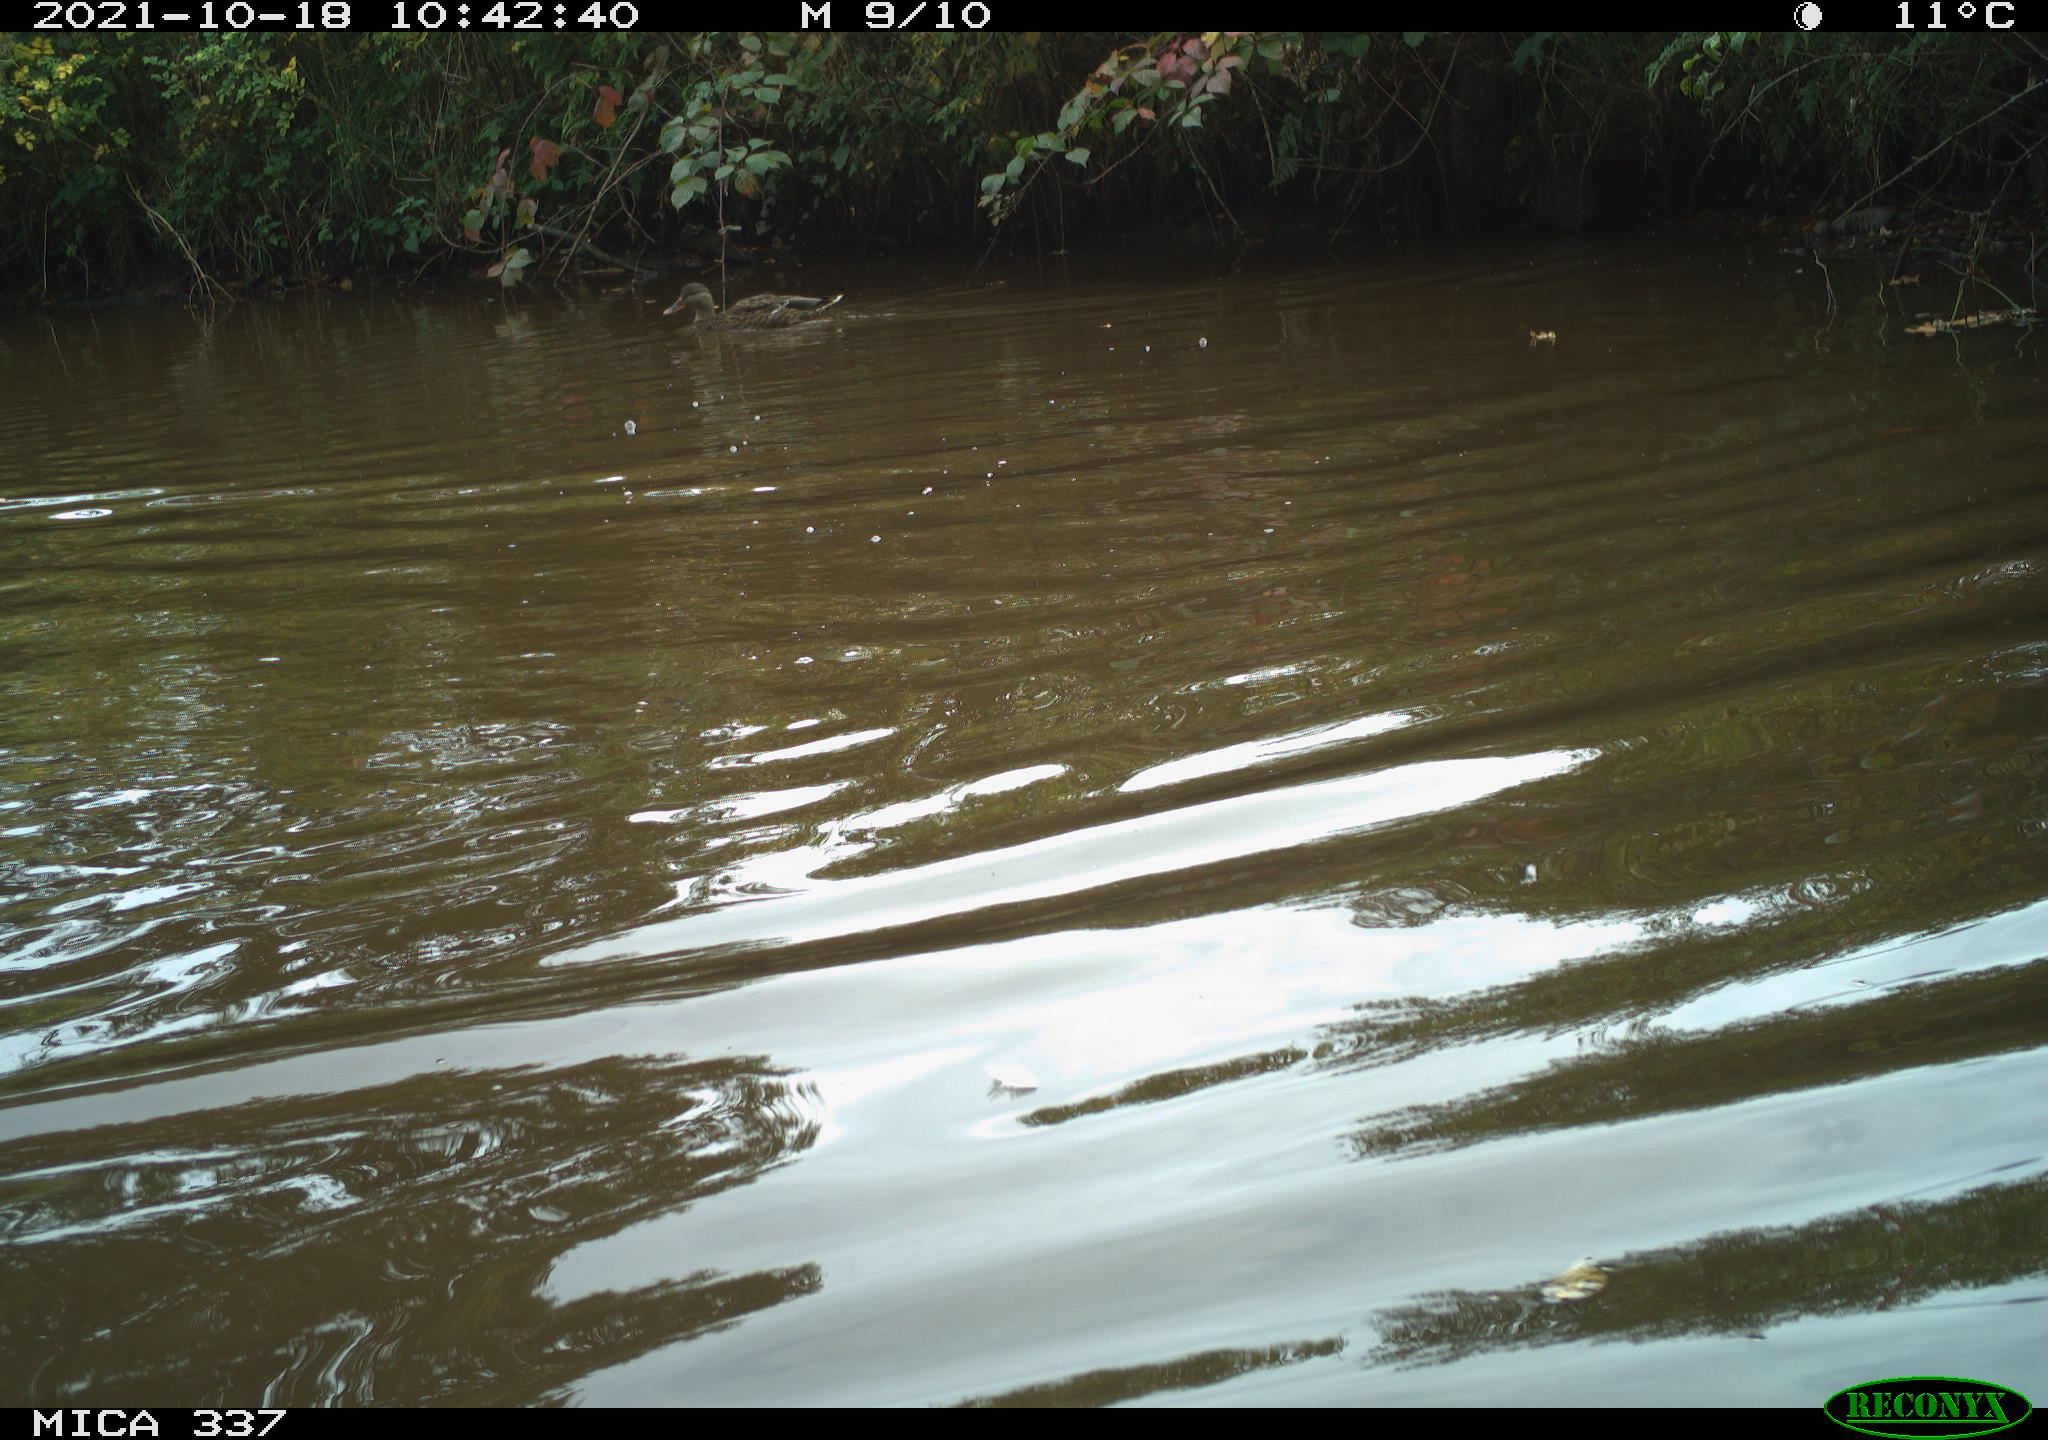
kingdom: Animalia
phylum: Chordata
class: Aves
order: Anseriformes
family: Anatidae
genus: Anas
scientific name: Anas platyrhynchos
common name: Mallard
